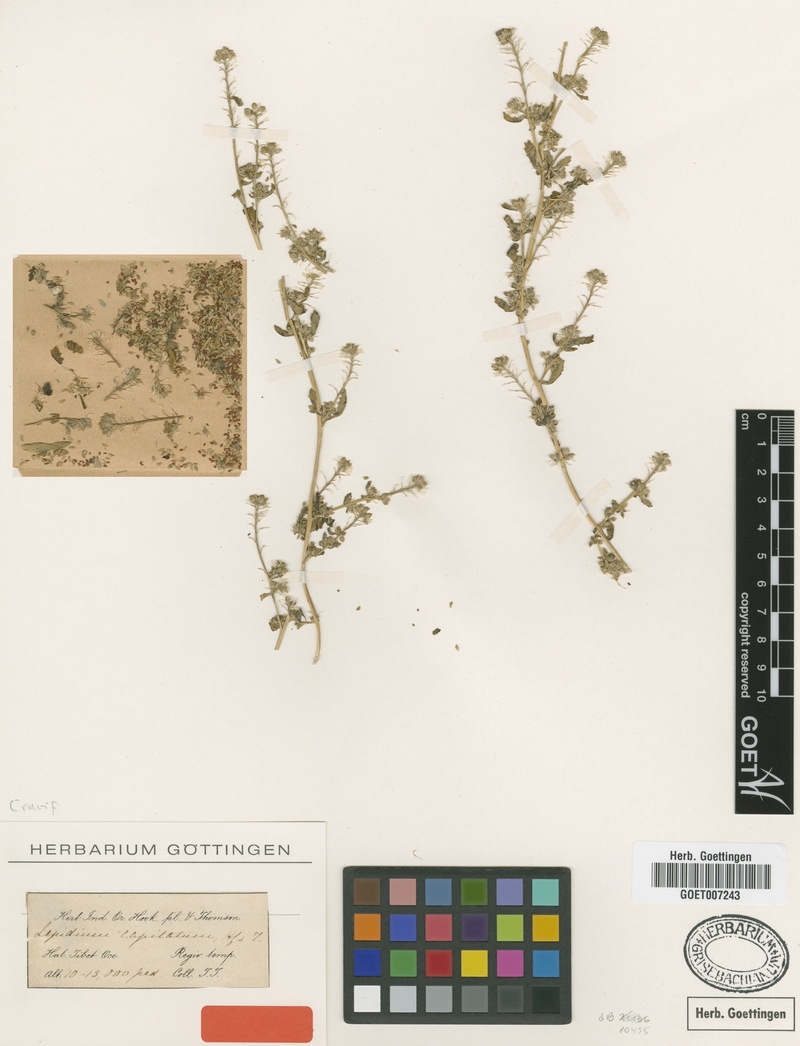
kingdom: Plantae
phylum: Tracheophyta
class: Magnoliopsida
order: Brassicales
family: Brassicaceae
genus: Lepidium
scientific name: Lepidium capitatum
